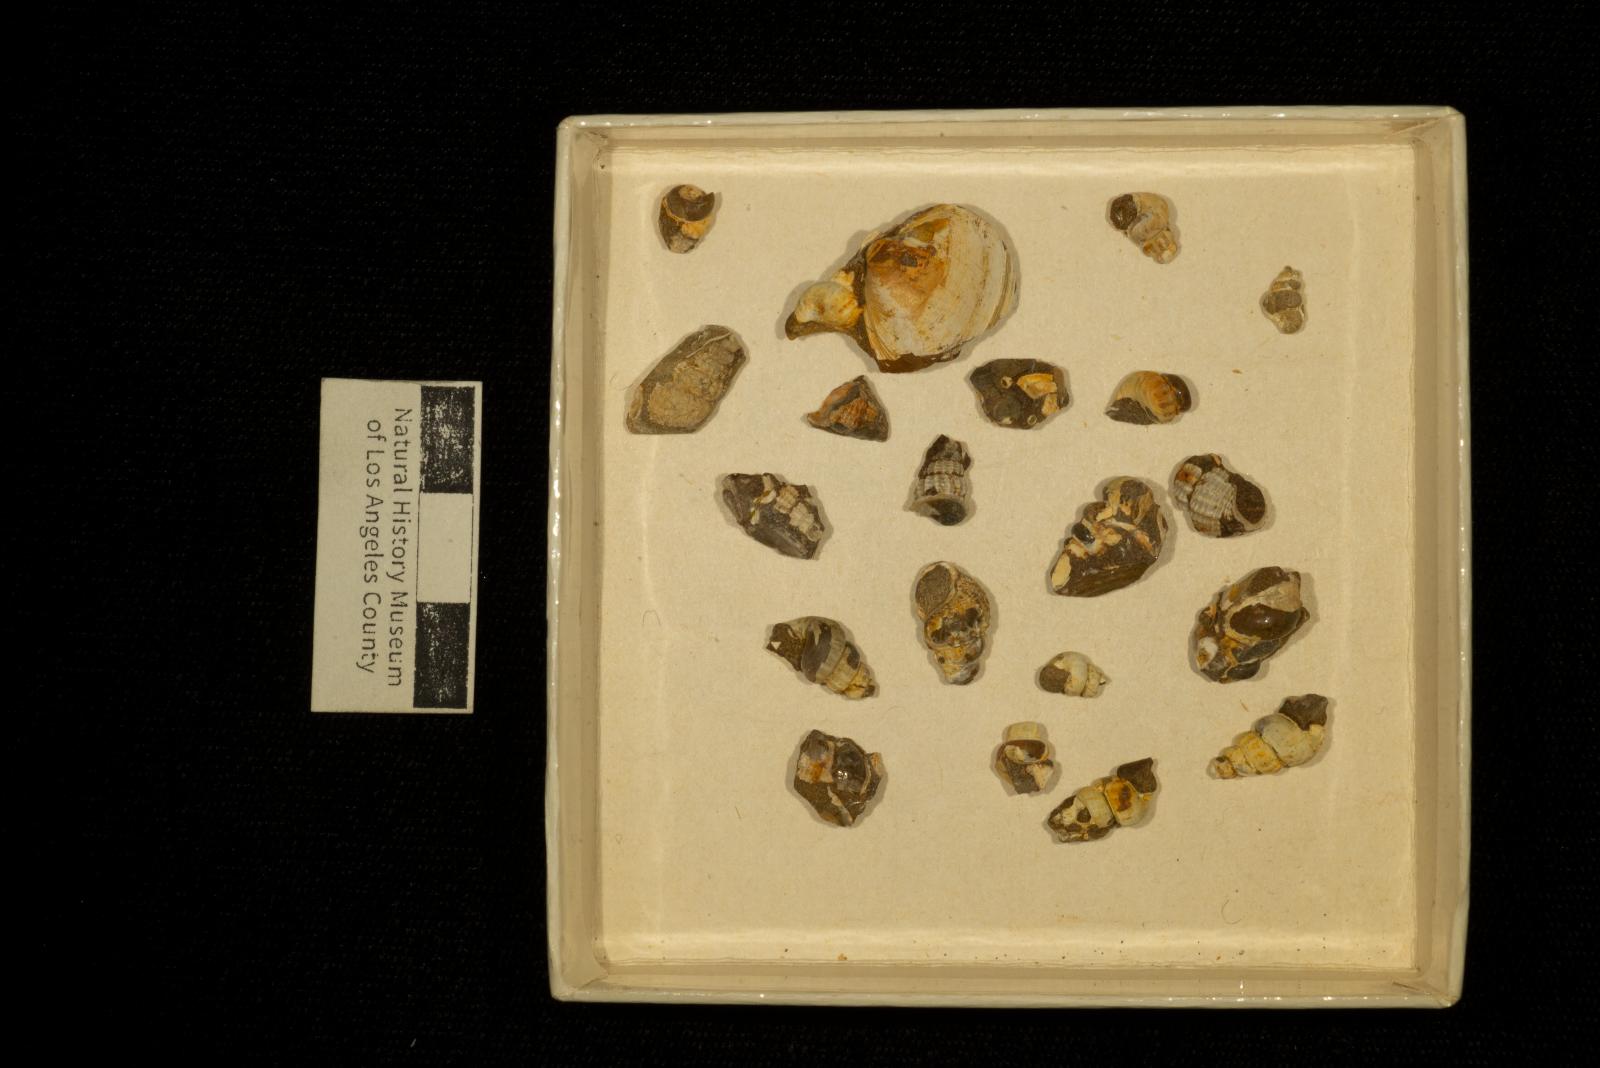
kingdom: Animalia
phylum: Mollusca
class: Gastropoda
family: Epitoniidae
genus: Belliscala
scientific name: Belliscala petra
